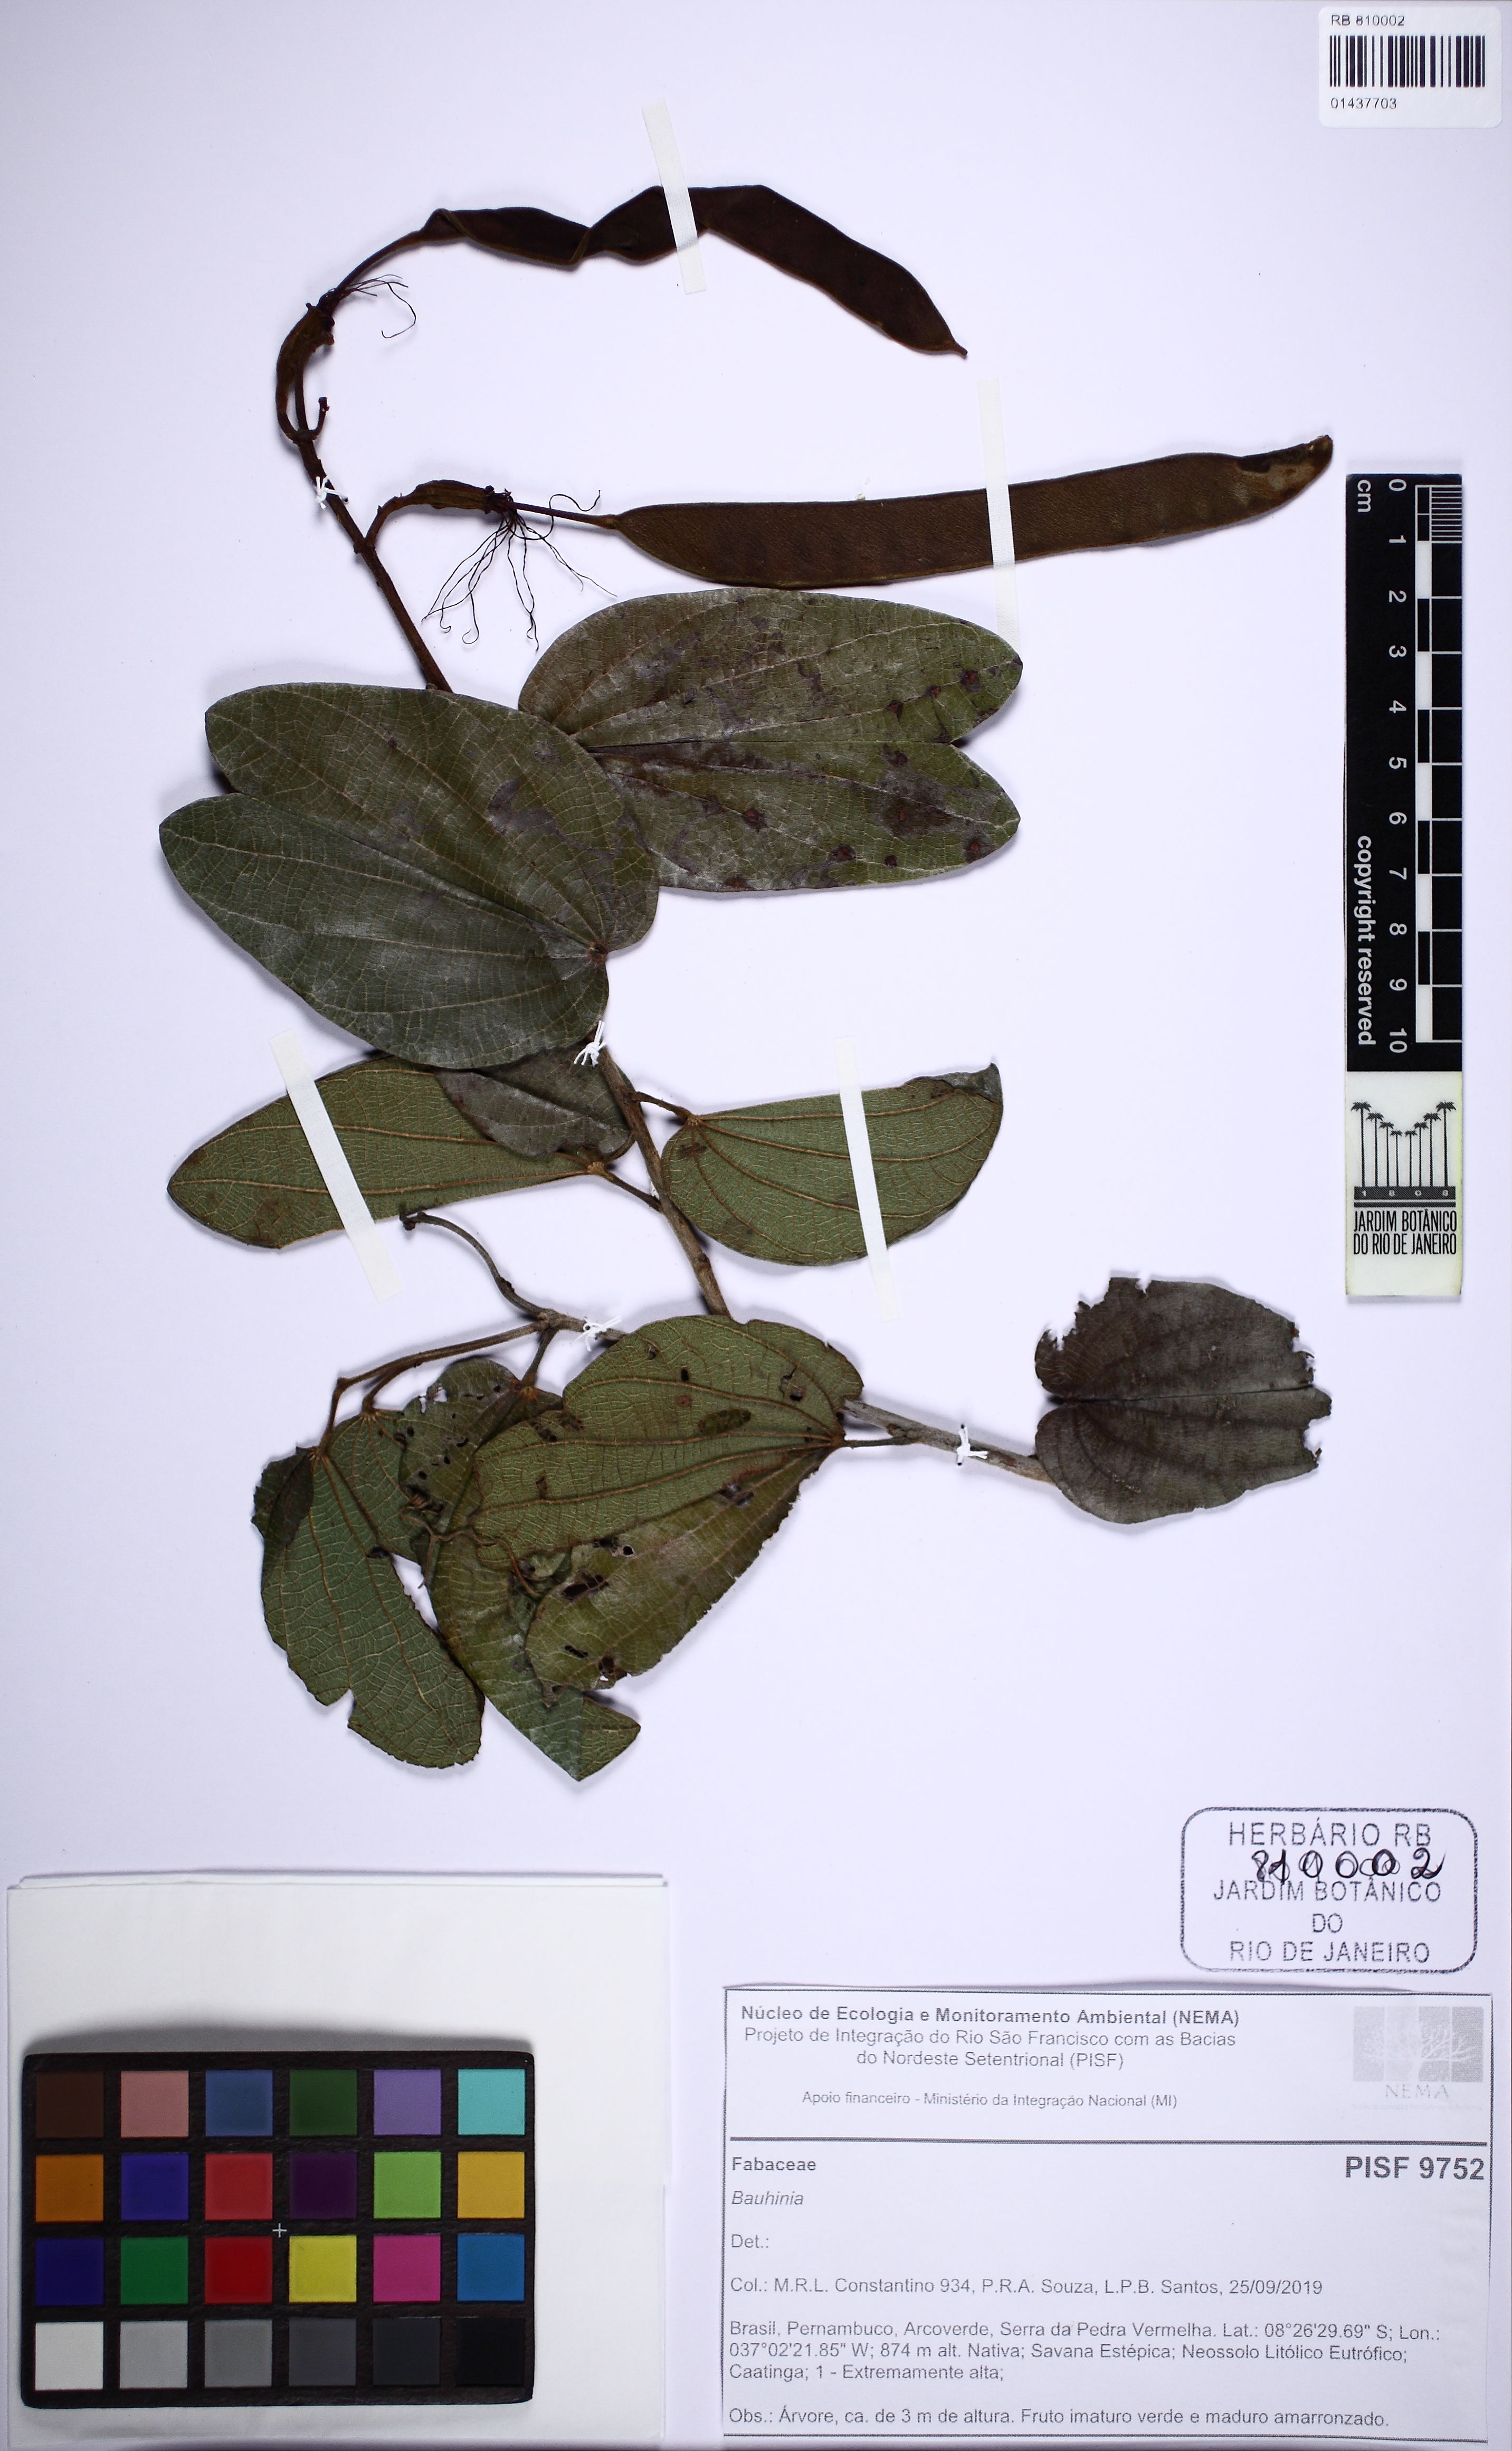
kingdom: Plantae
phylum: Tracheophyta
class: Magnoliopsida
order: Fabales
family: Fabaceae
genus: Bauhinia
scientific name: Bauhinia
